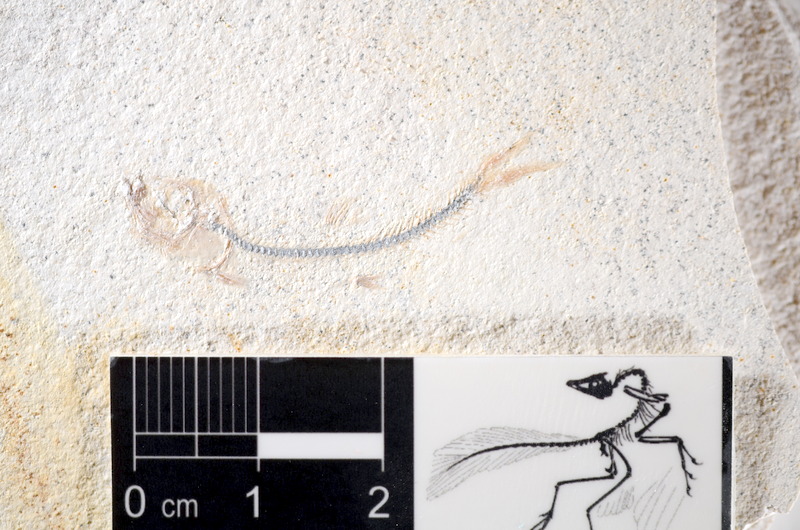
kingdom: Animalia
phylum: Chordata
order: Salmoniformes
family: Orthogonikleithridae
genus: Orthogonikleithrus
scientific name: Orthogonikleithrus hoelli
